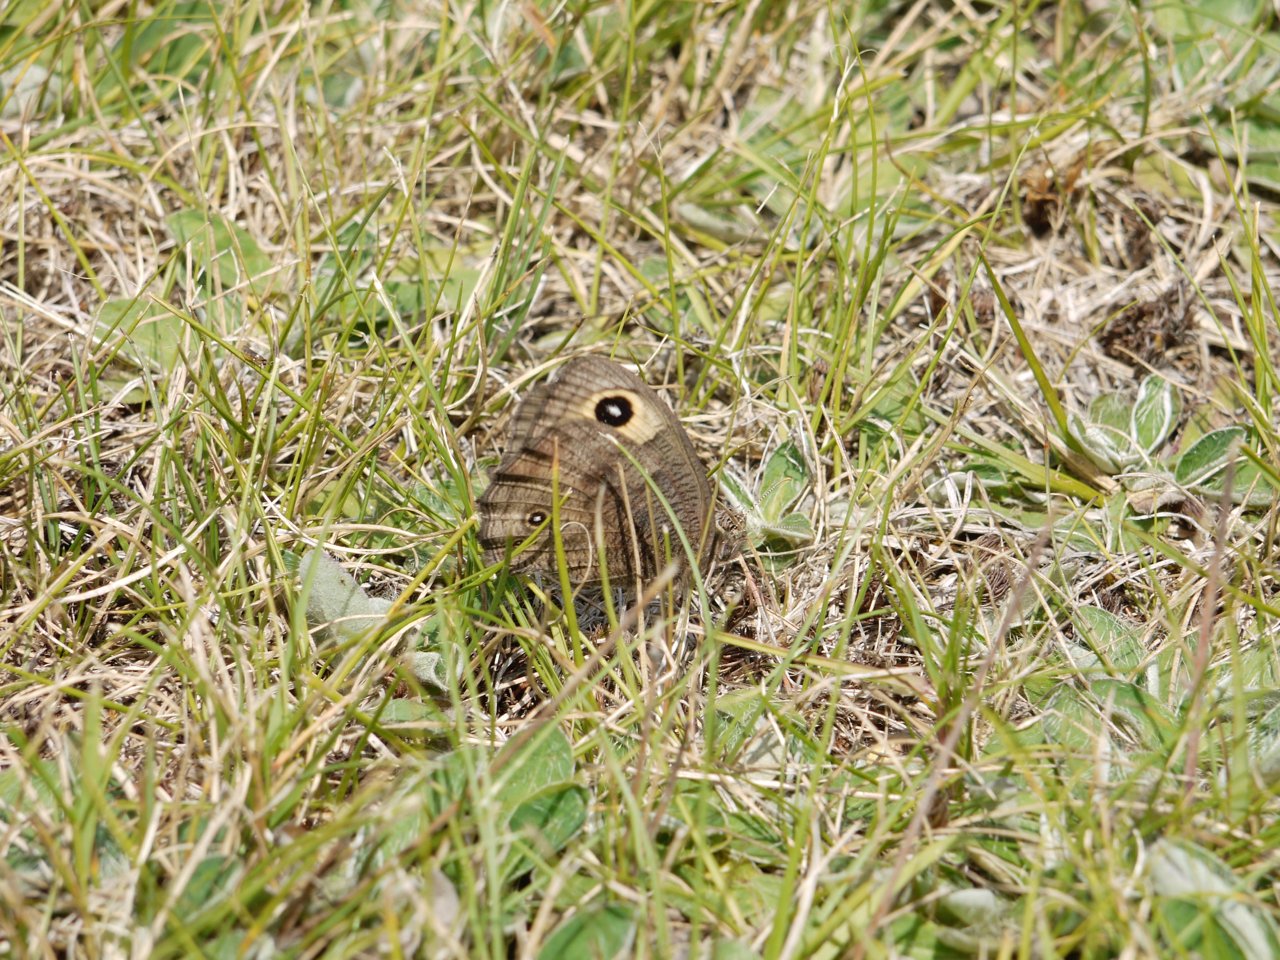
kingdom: Animalia
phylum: Arthropoda
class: Insecta
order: Lepidoptera
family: Nymphalidae
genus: Cercyonis
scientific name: Cercyonis pegala
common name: Common Wood-Nymph
